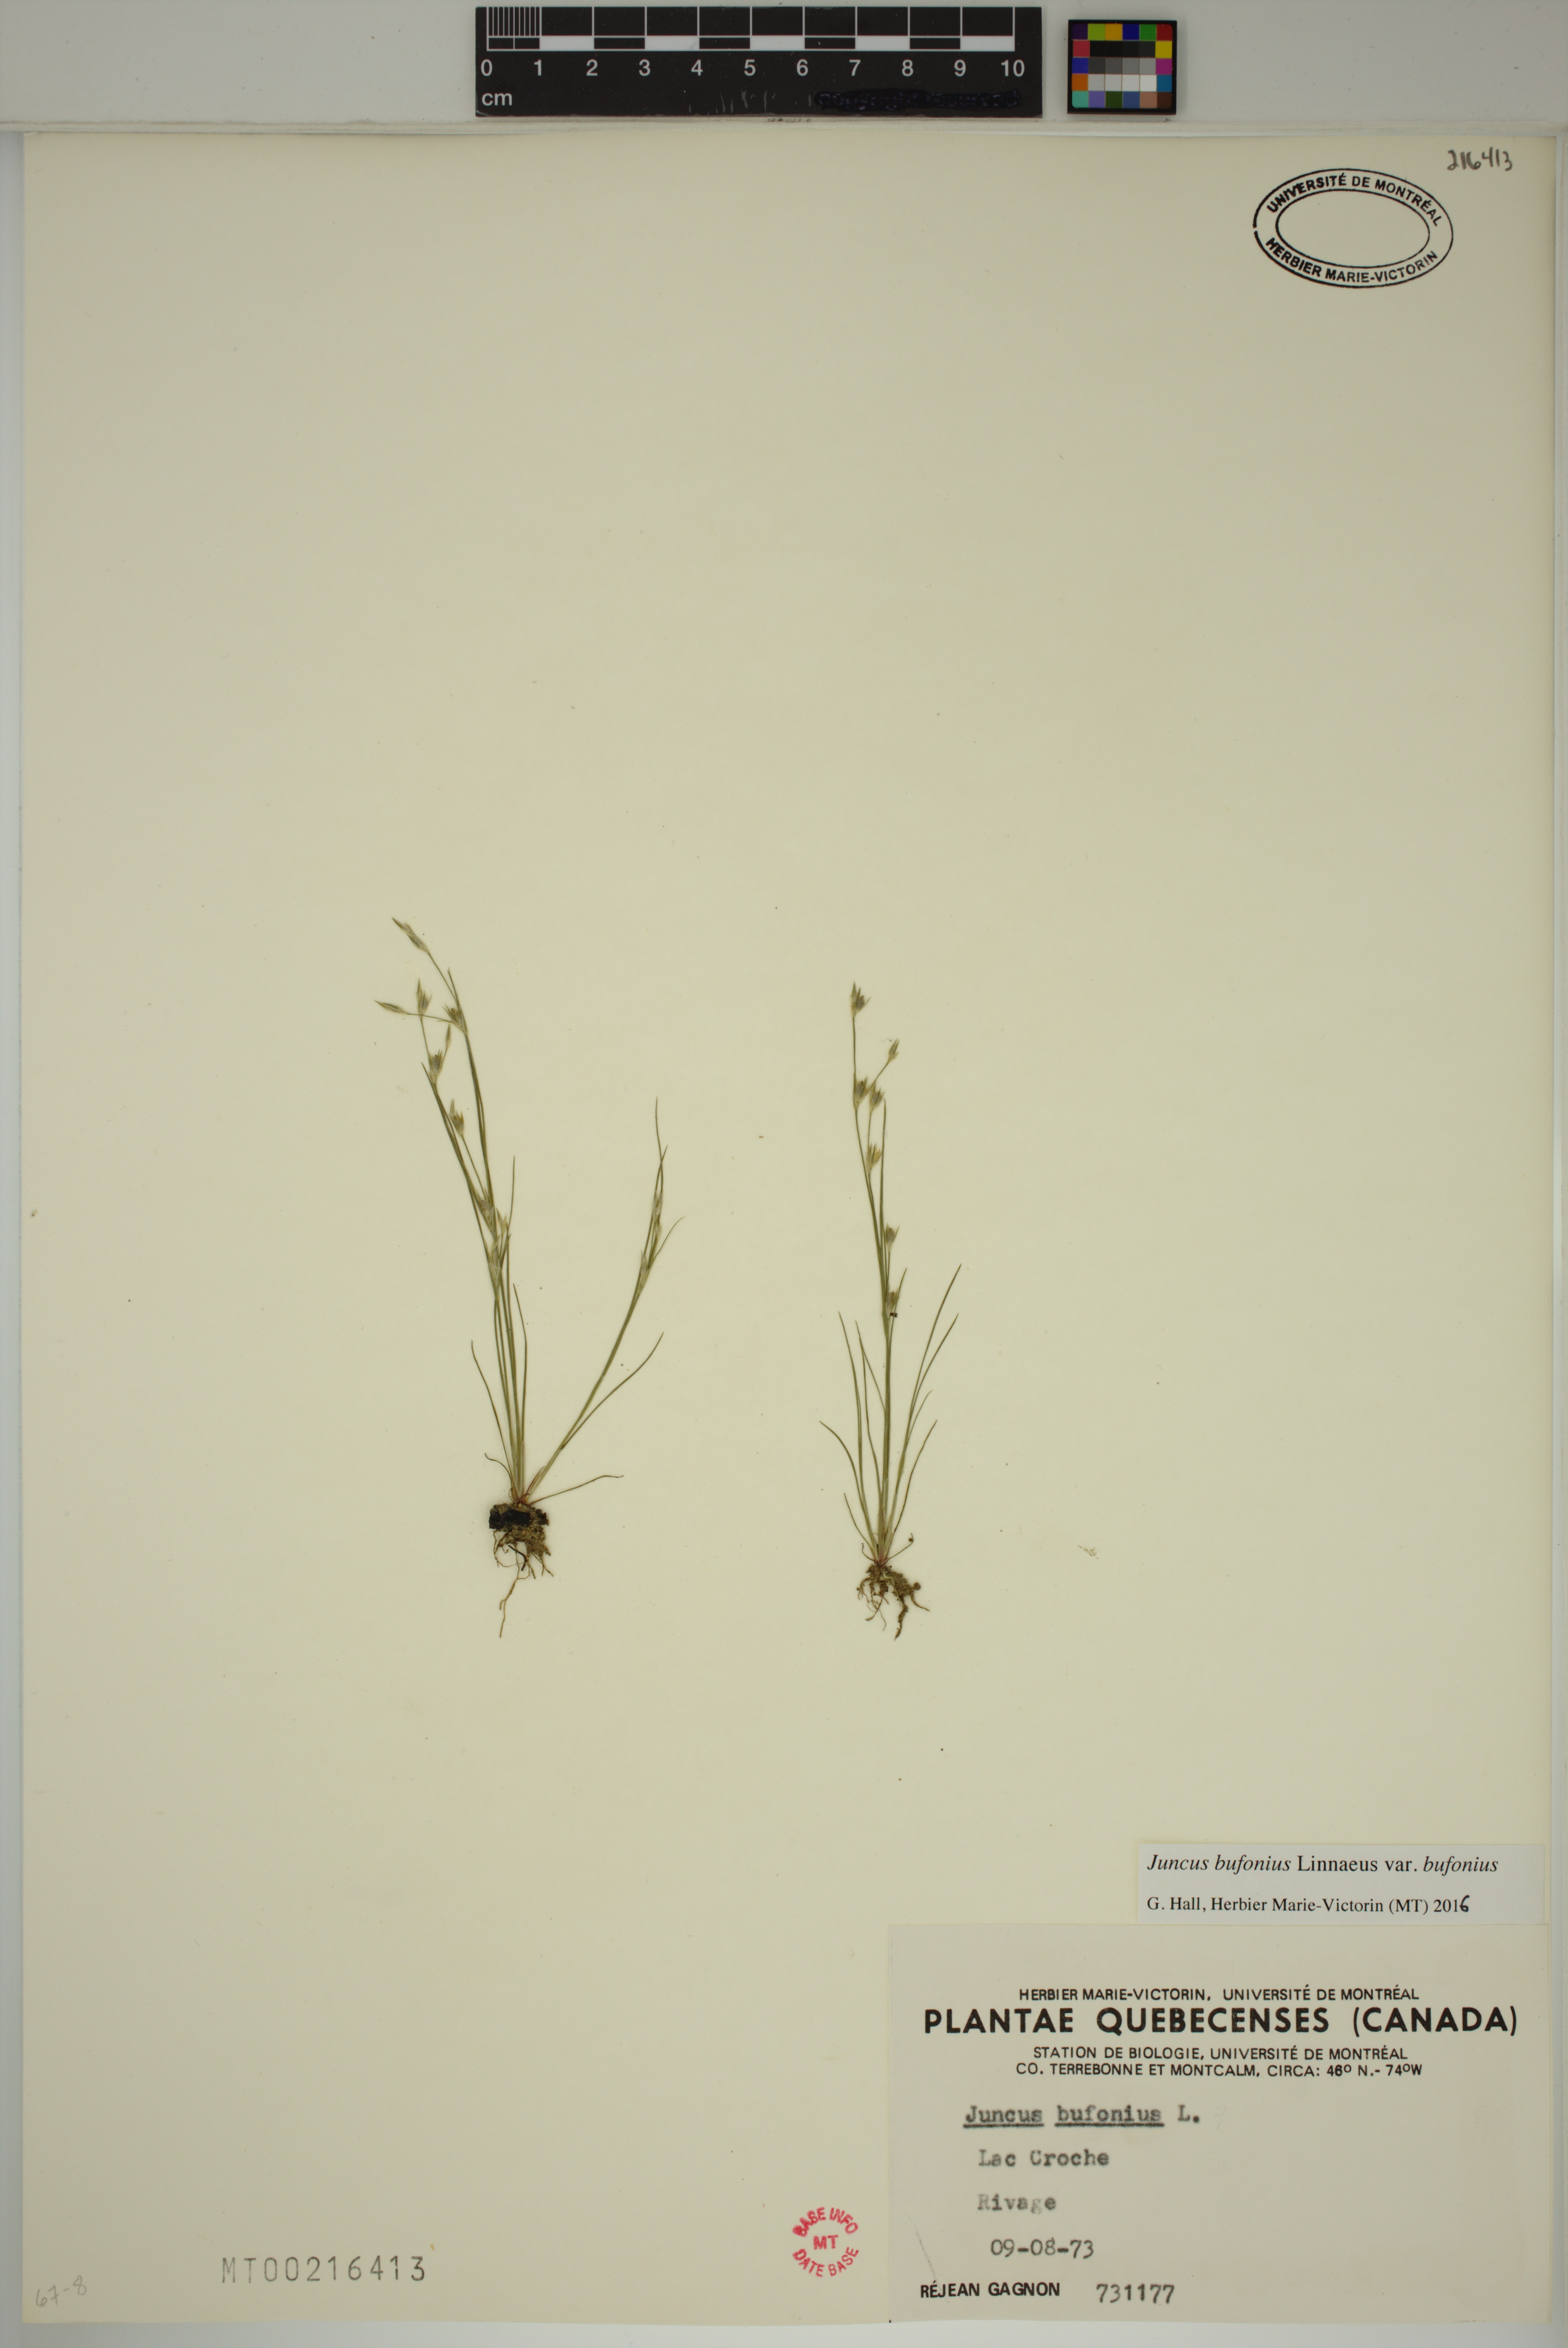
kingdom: Plantae
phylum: Tracheophyta
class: Liliopsida
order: Poales
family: Juncaceae
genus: Juncus
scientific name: Juncus bufonius
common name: Toad rush
